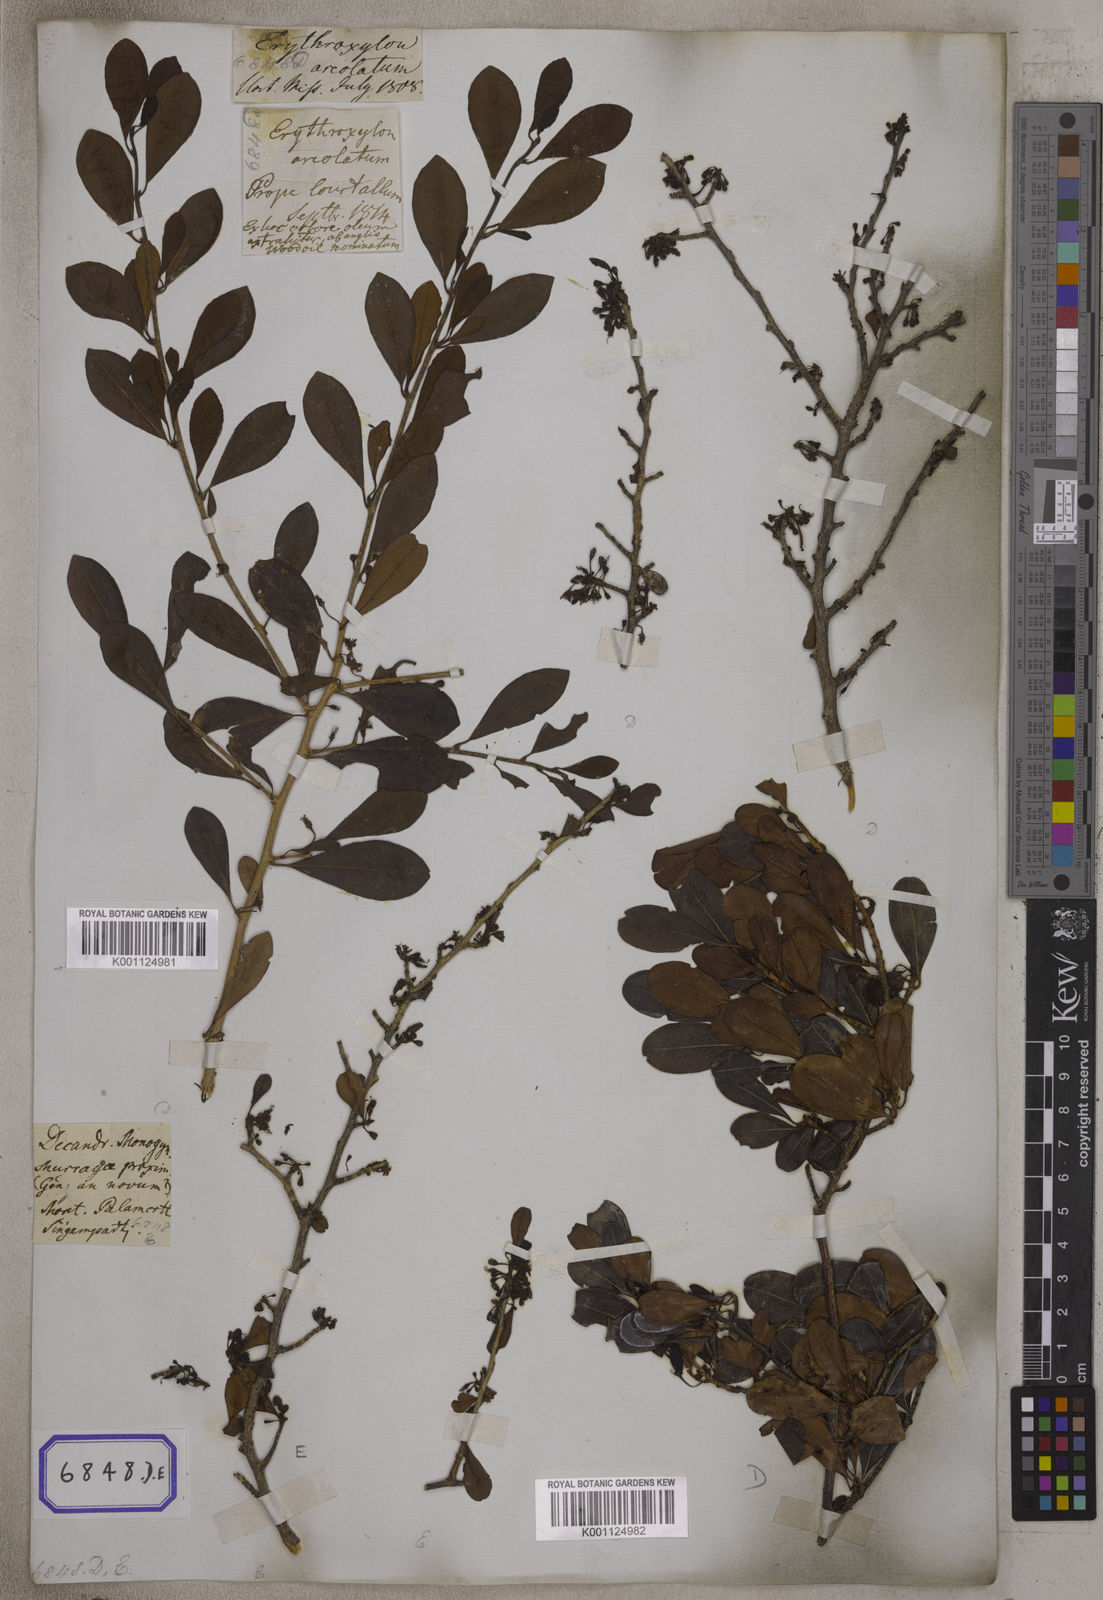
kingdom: Plantae
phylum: Tracheophyta
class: Magnoliopsida
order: Malpighiales
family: Erythroxylaceae
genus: Erythroxylum
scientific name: Erythroxylum monogynum
